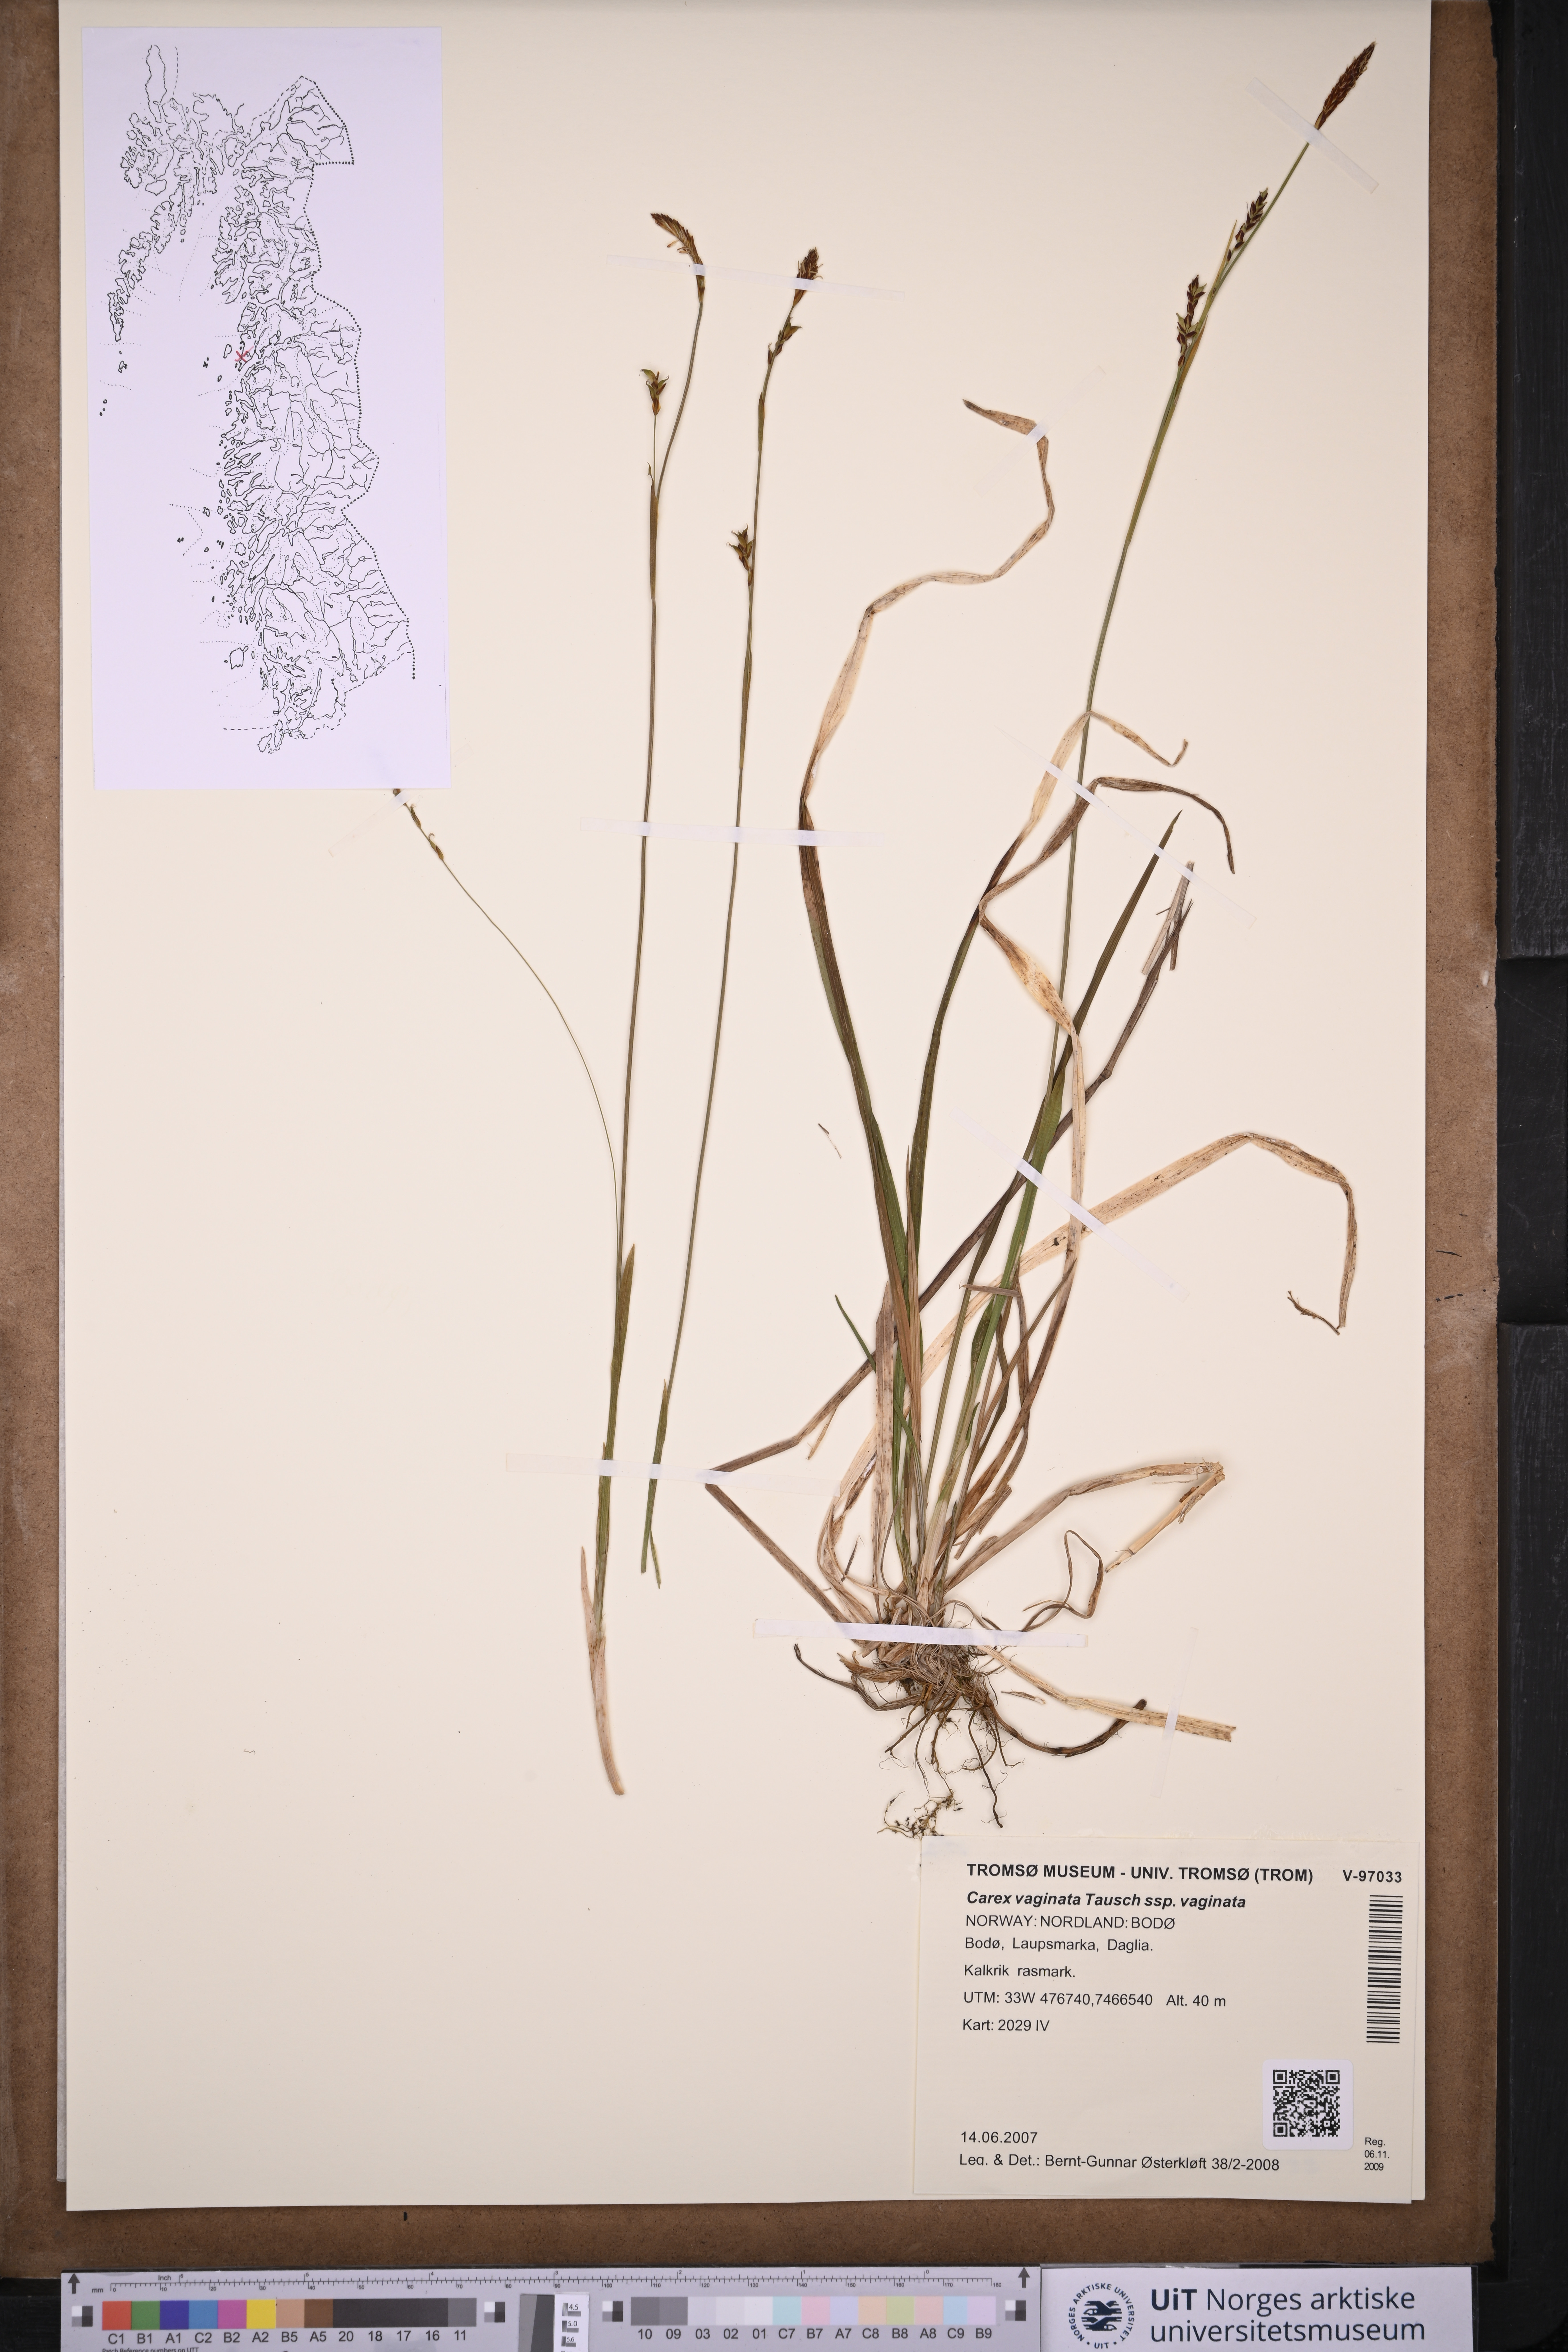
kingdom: Plantae
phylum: Tracheophyta
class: Liliopsida
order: Poales
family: Cyperaceae
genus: Carex
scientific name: Carex vaginata
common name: Sheathed sedge
